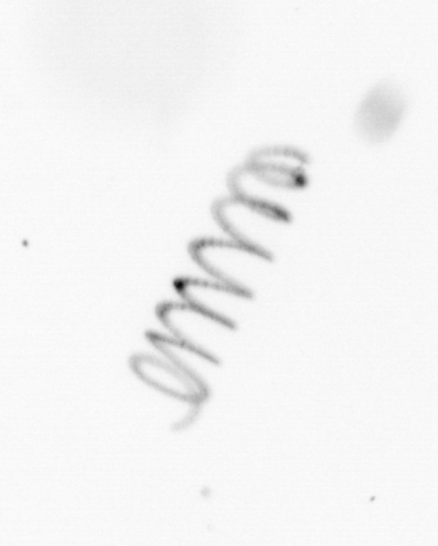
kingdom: Chromista
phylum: Ochrophyta
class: Bacillariophyceae
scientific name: Bacillariophyceae
